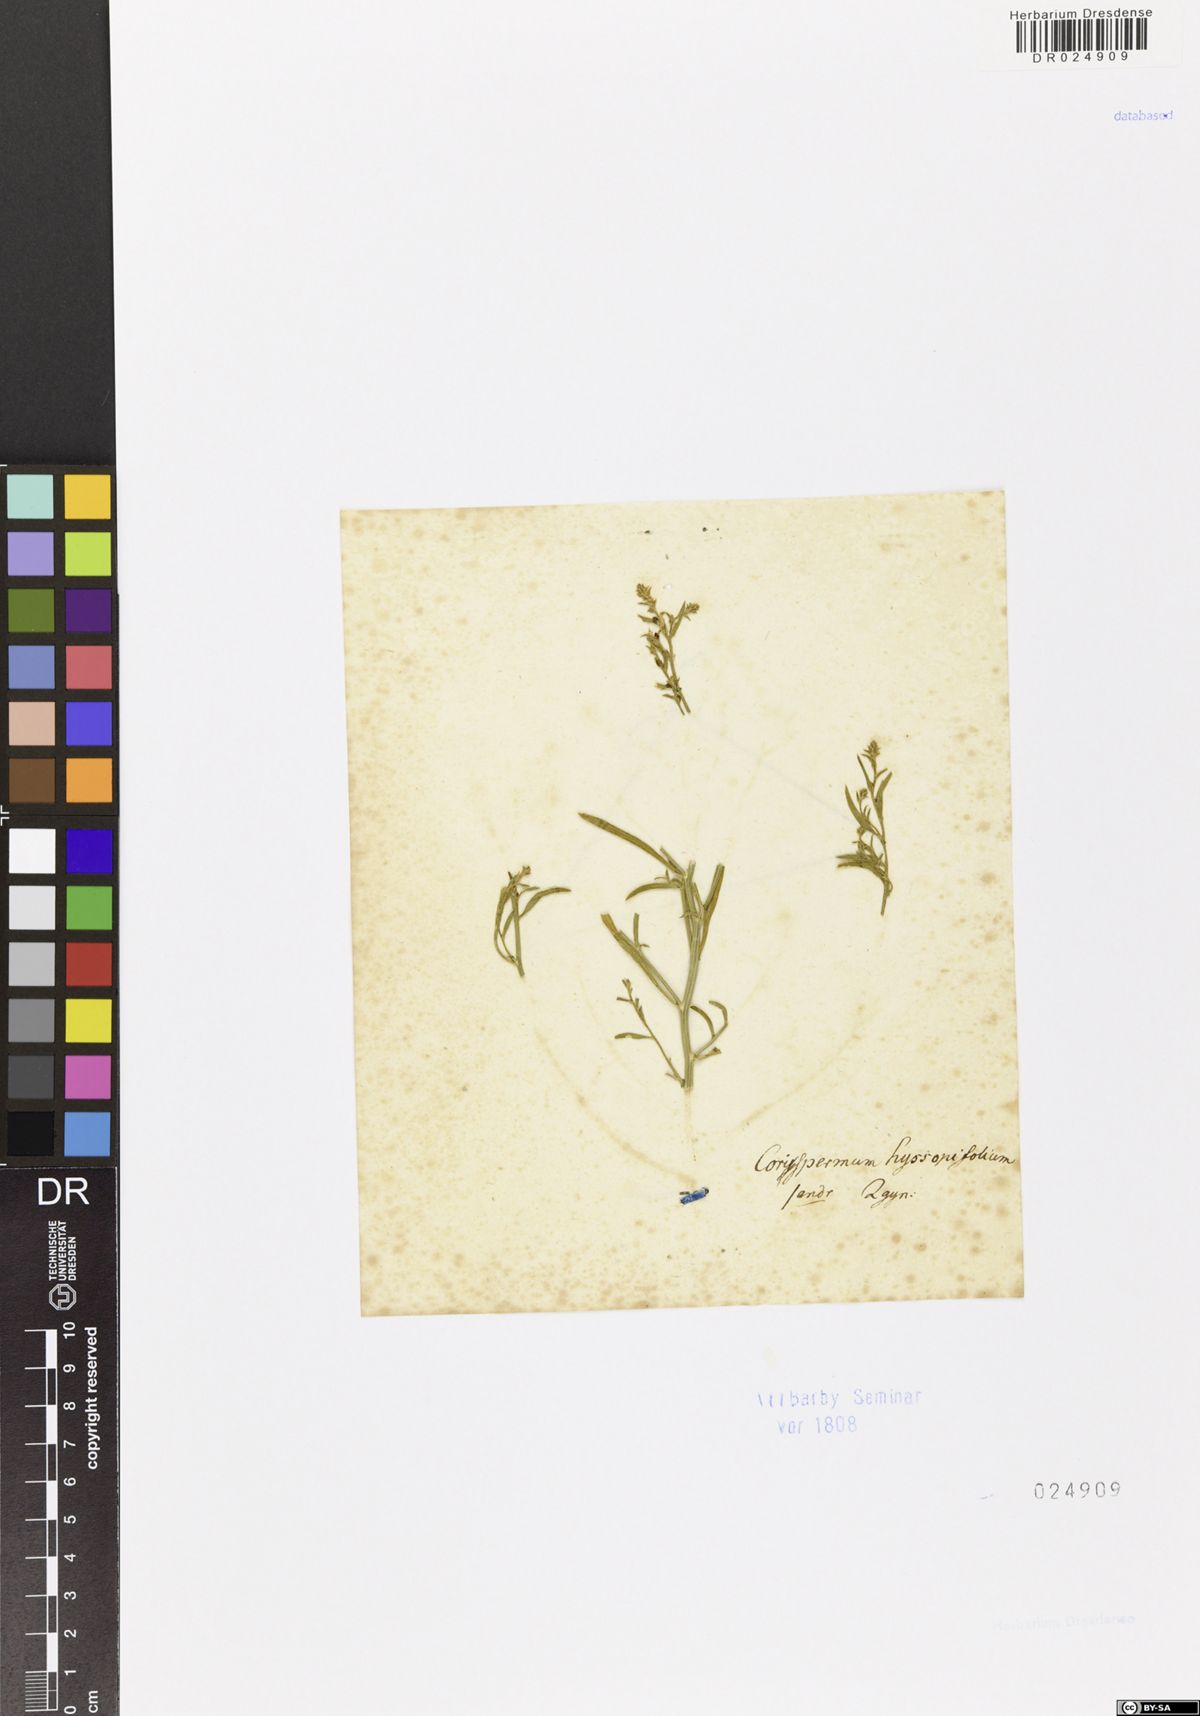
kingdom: Plantae
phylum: Tracheophyta
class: Magnoliopsida
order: Caryophyllales
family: Amaranthaceae
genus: Corispermum
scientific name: Corispermum hyssopifolium
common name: Bugseed
